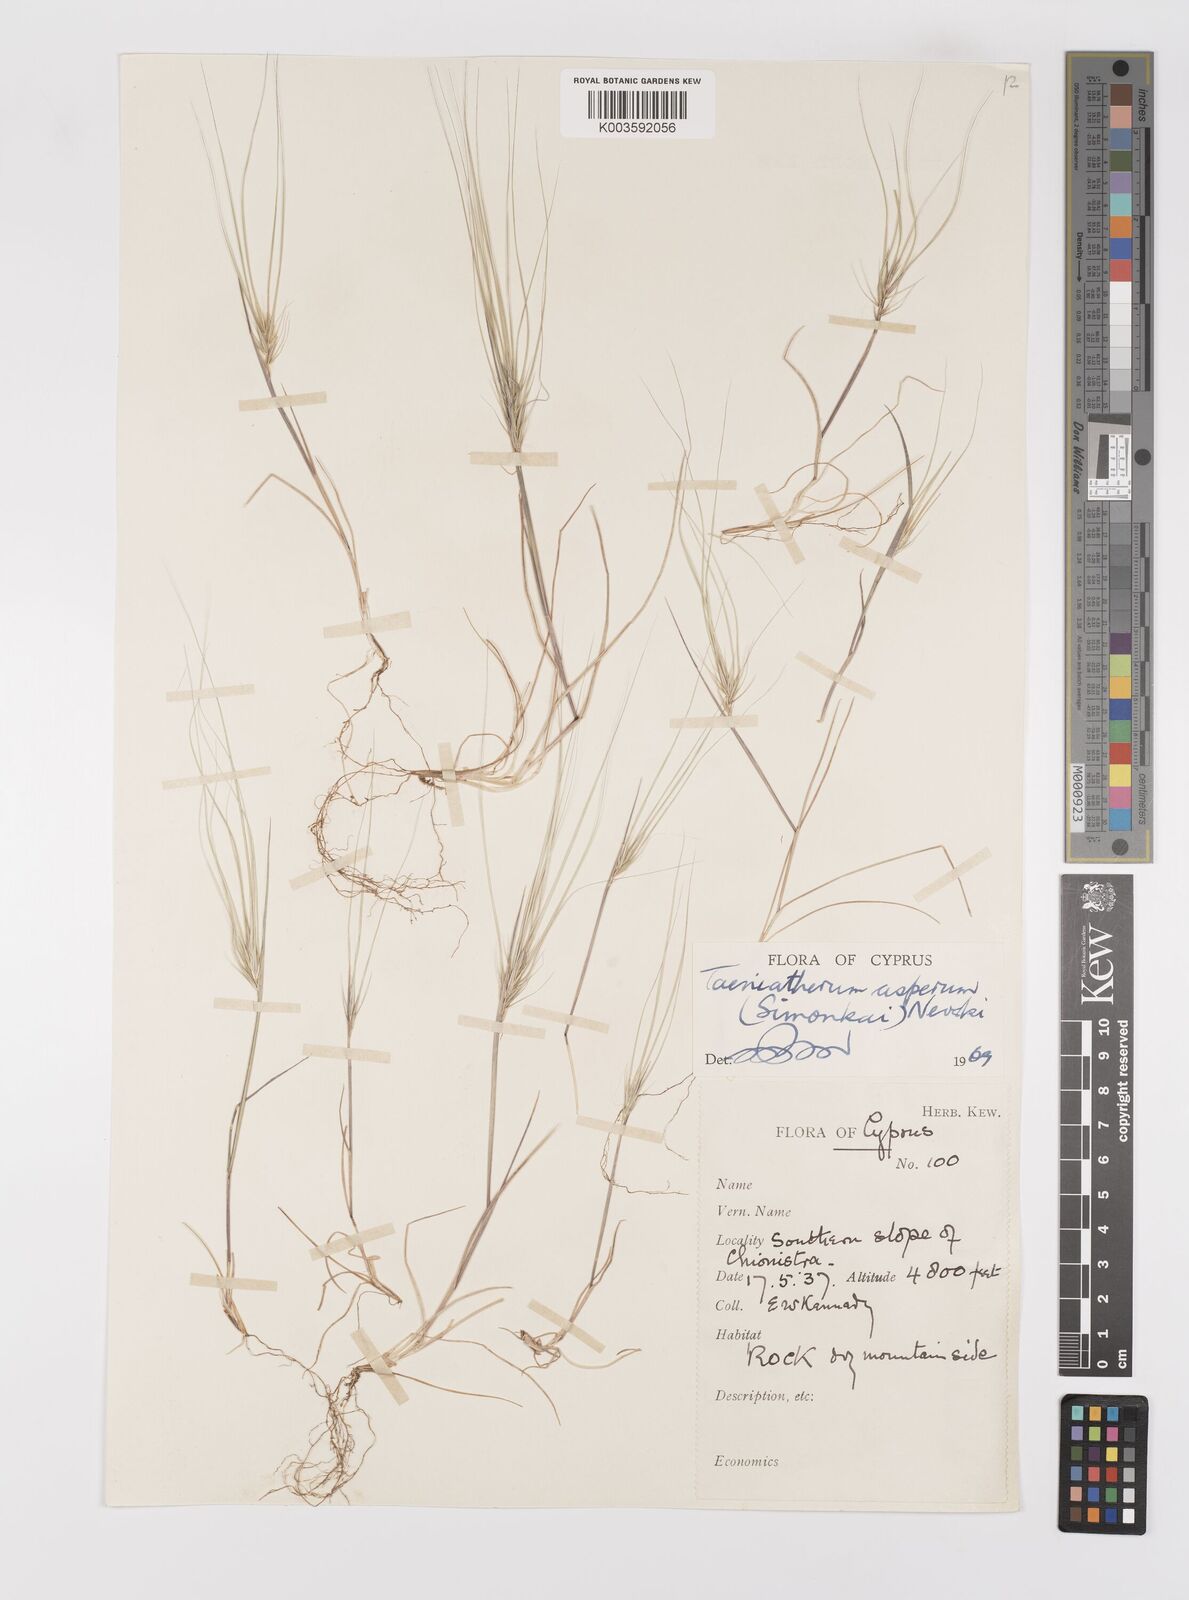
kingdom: Plantae
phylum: Tracheophyta
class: Liliopsida
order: Poales
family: Poaceae
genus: Taeniatherum
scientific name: Taeniatherum caput-medusae
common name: Medusahead
